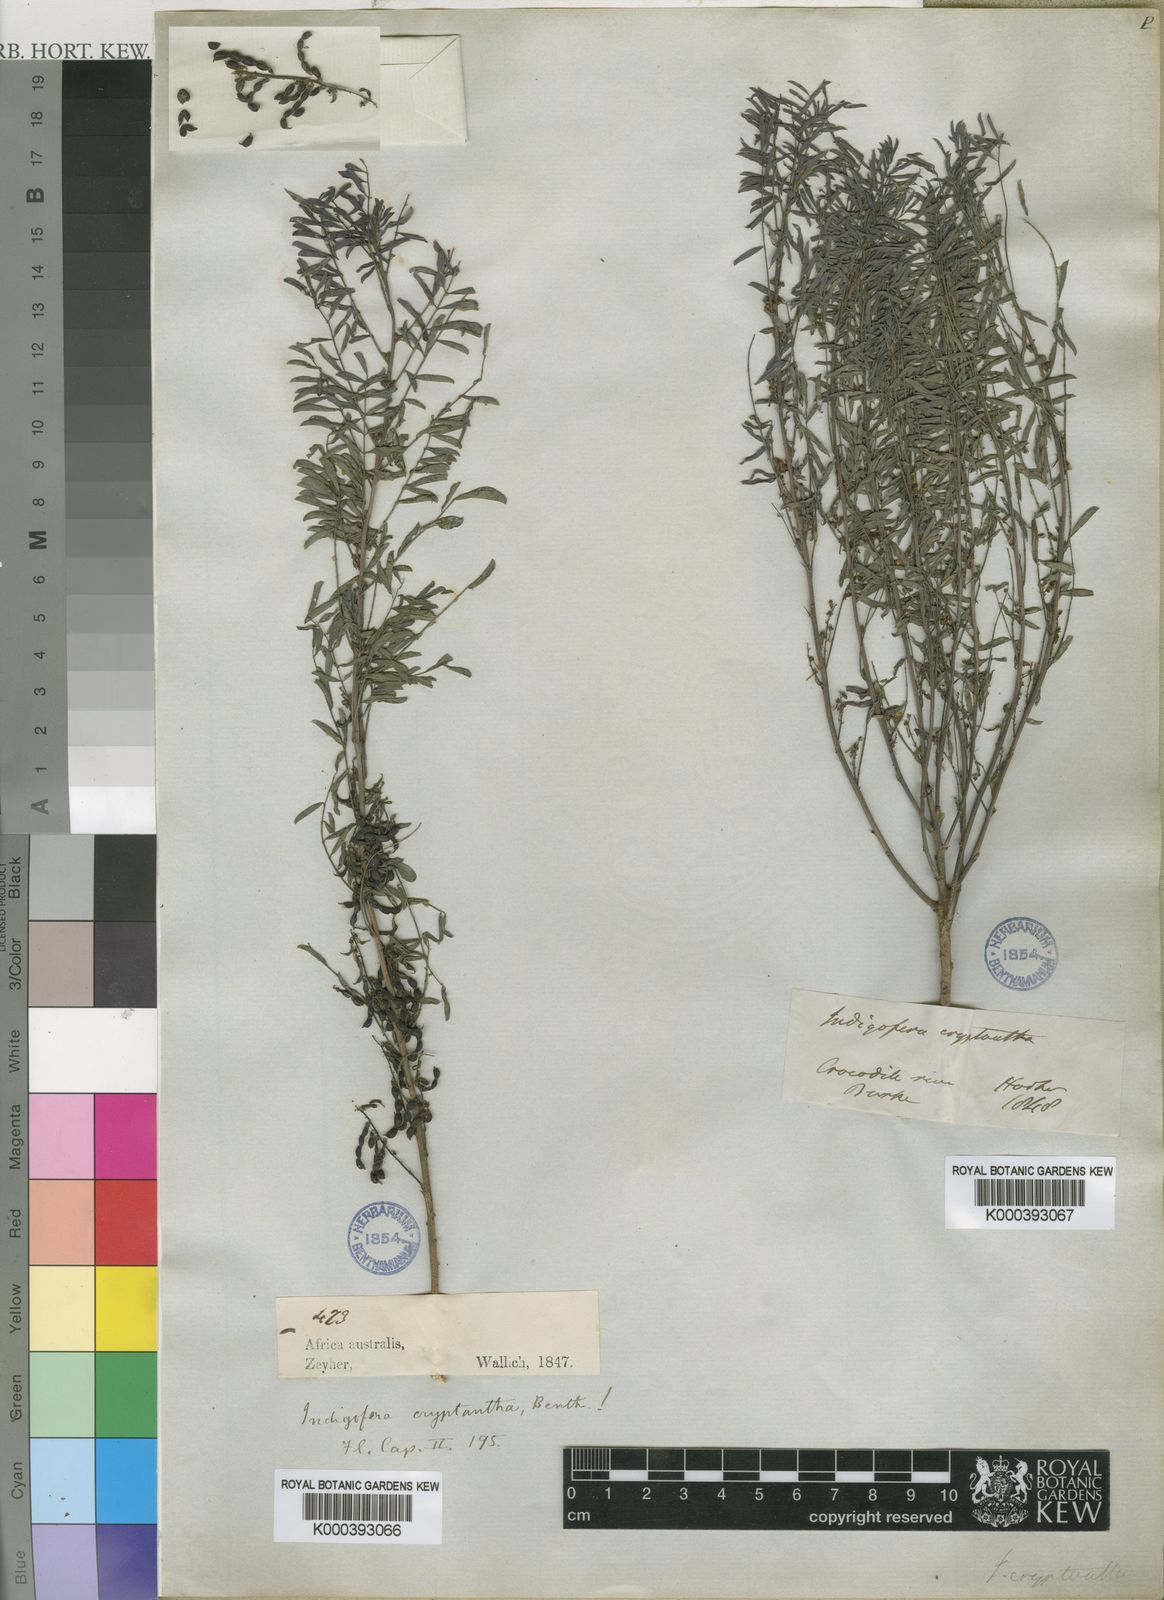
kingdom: Plantae
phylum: Tracheophyta
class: Magnoliopsida
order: Fabales
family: Fabaceae
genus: Indigofera
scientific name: Indigofera cryptantha
